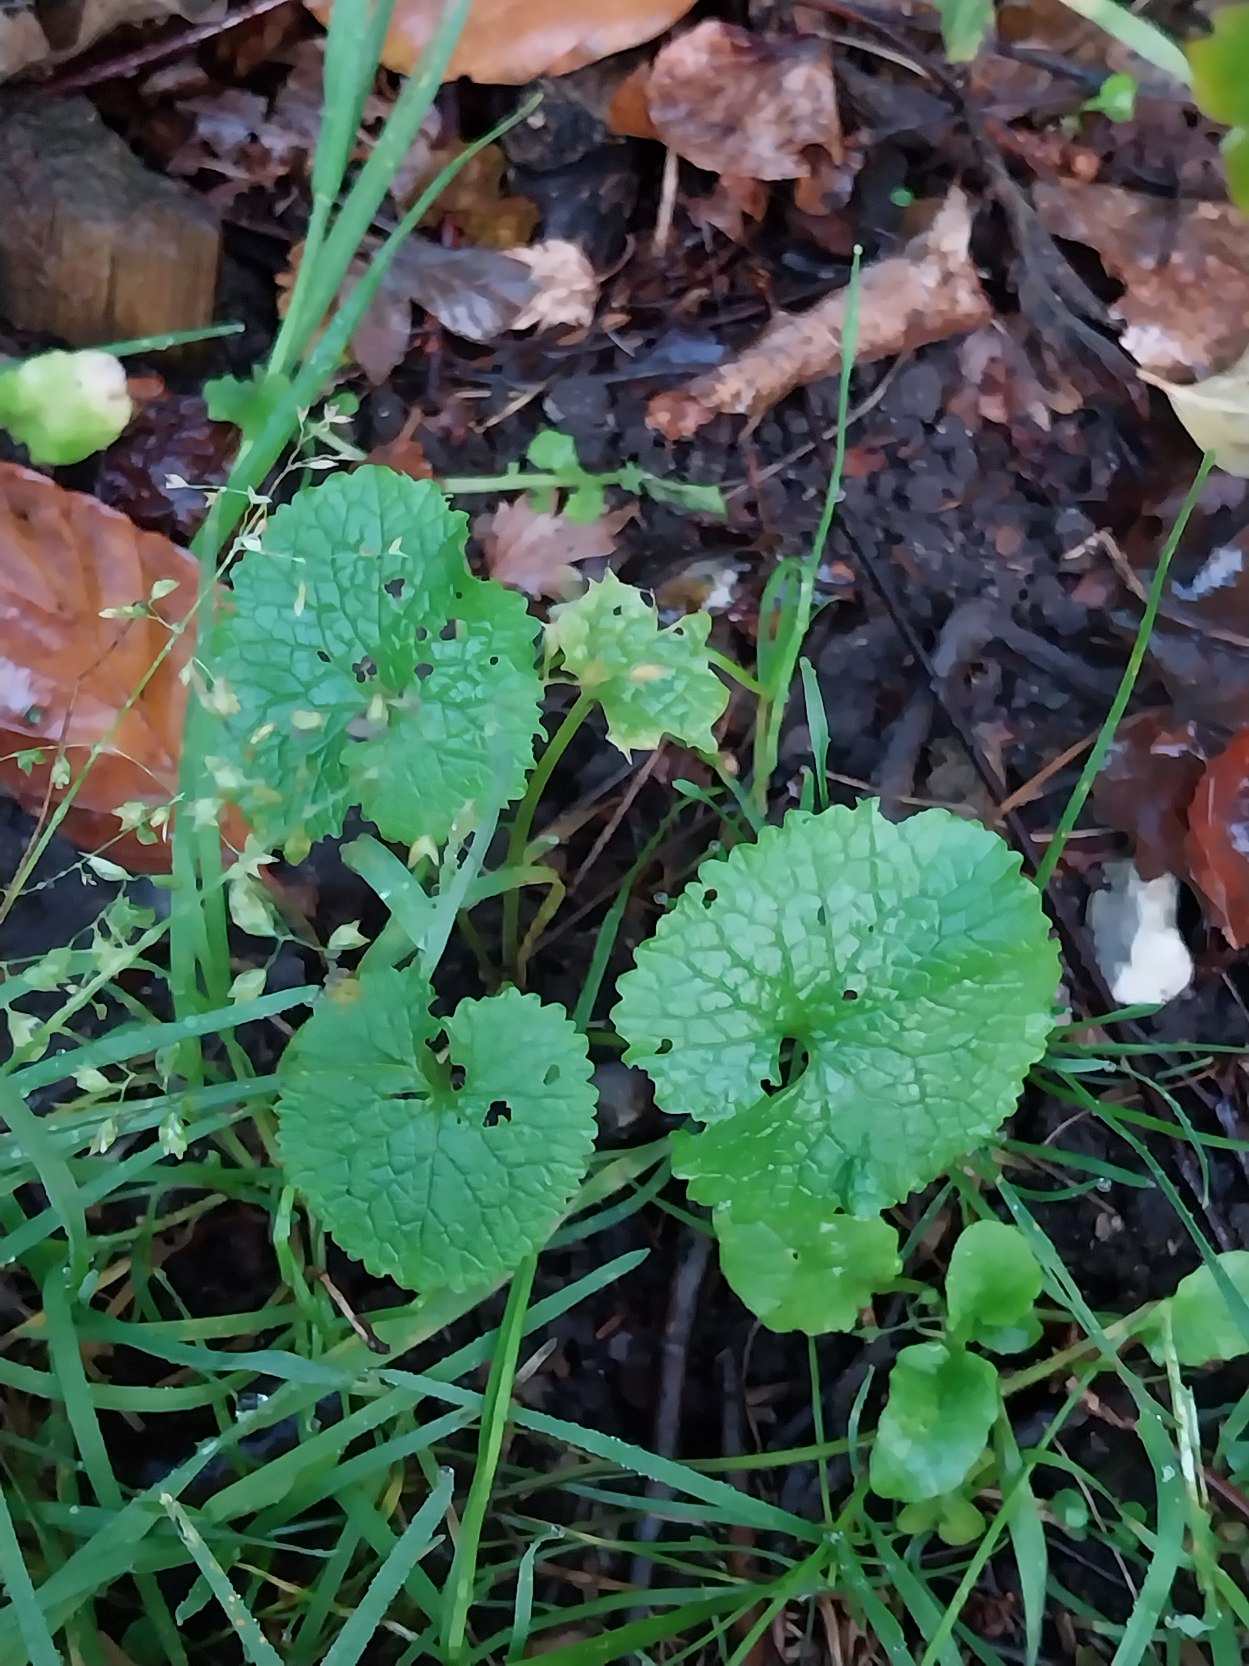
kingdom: Plantae
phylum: Tracheophyta
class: Magnoliopsida
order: Brassicales
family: Brassicaceae
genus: Alliaria
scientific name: Alliaria petiolata
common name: Løgkarse
